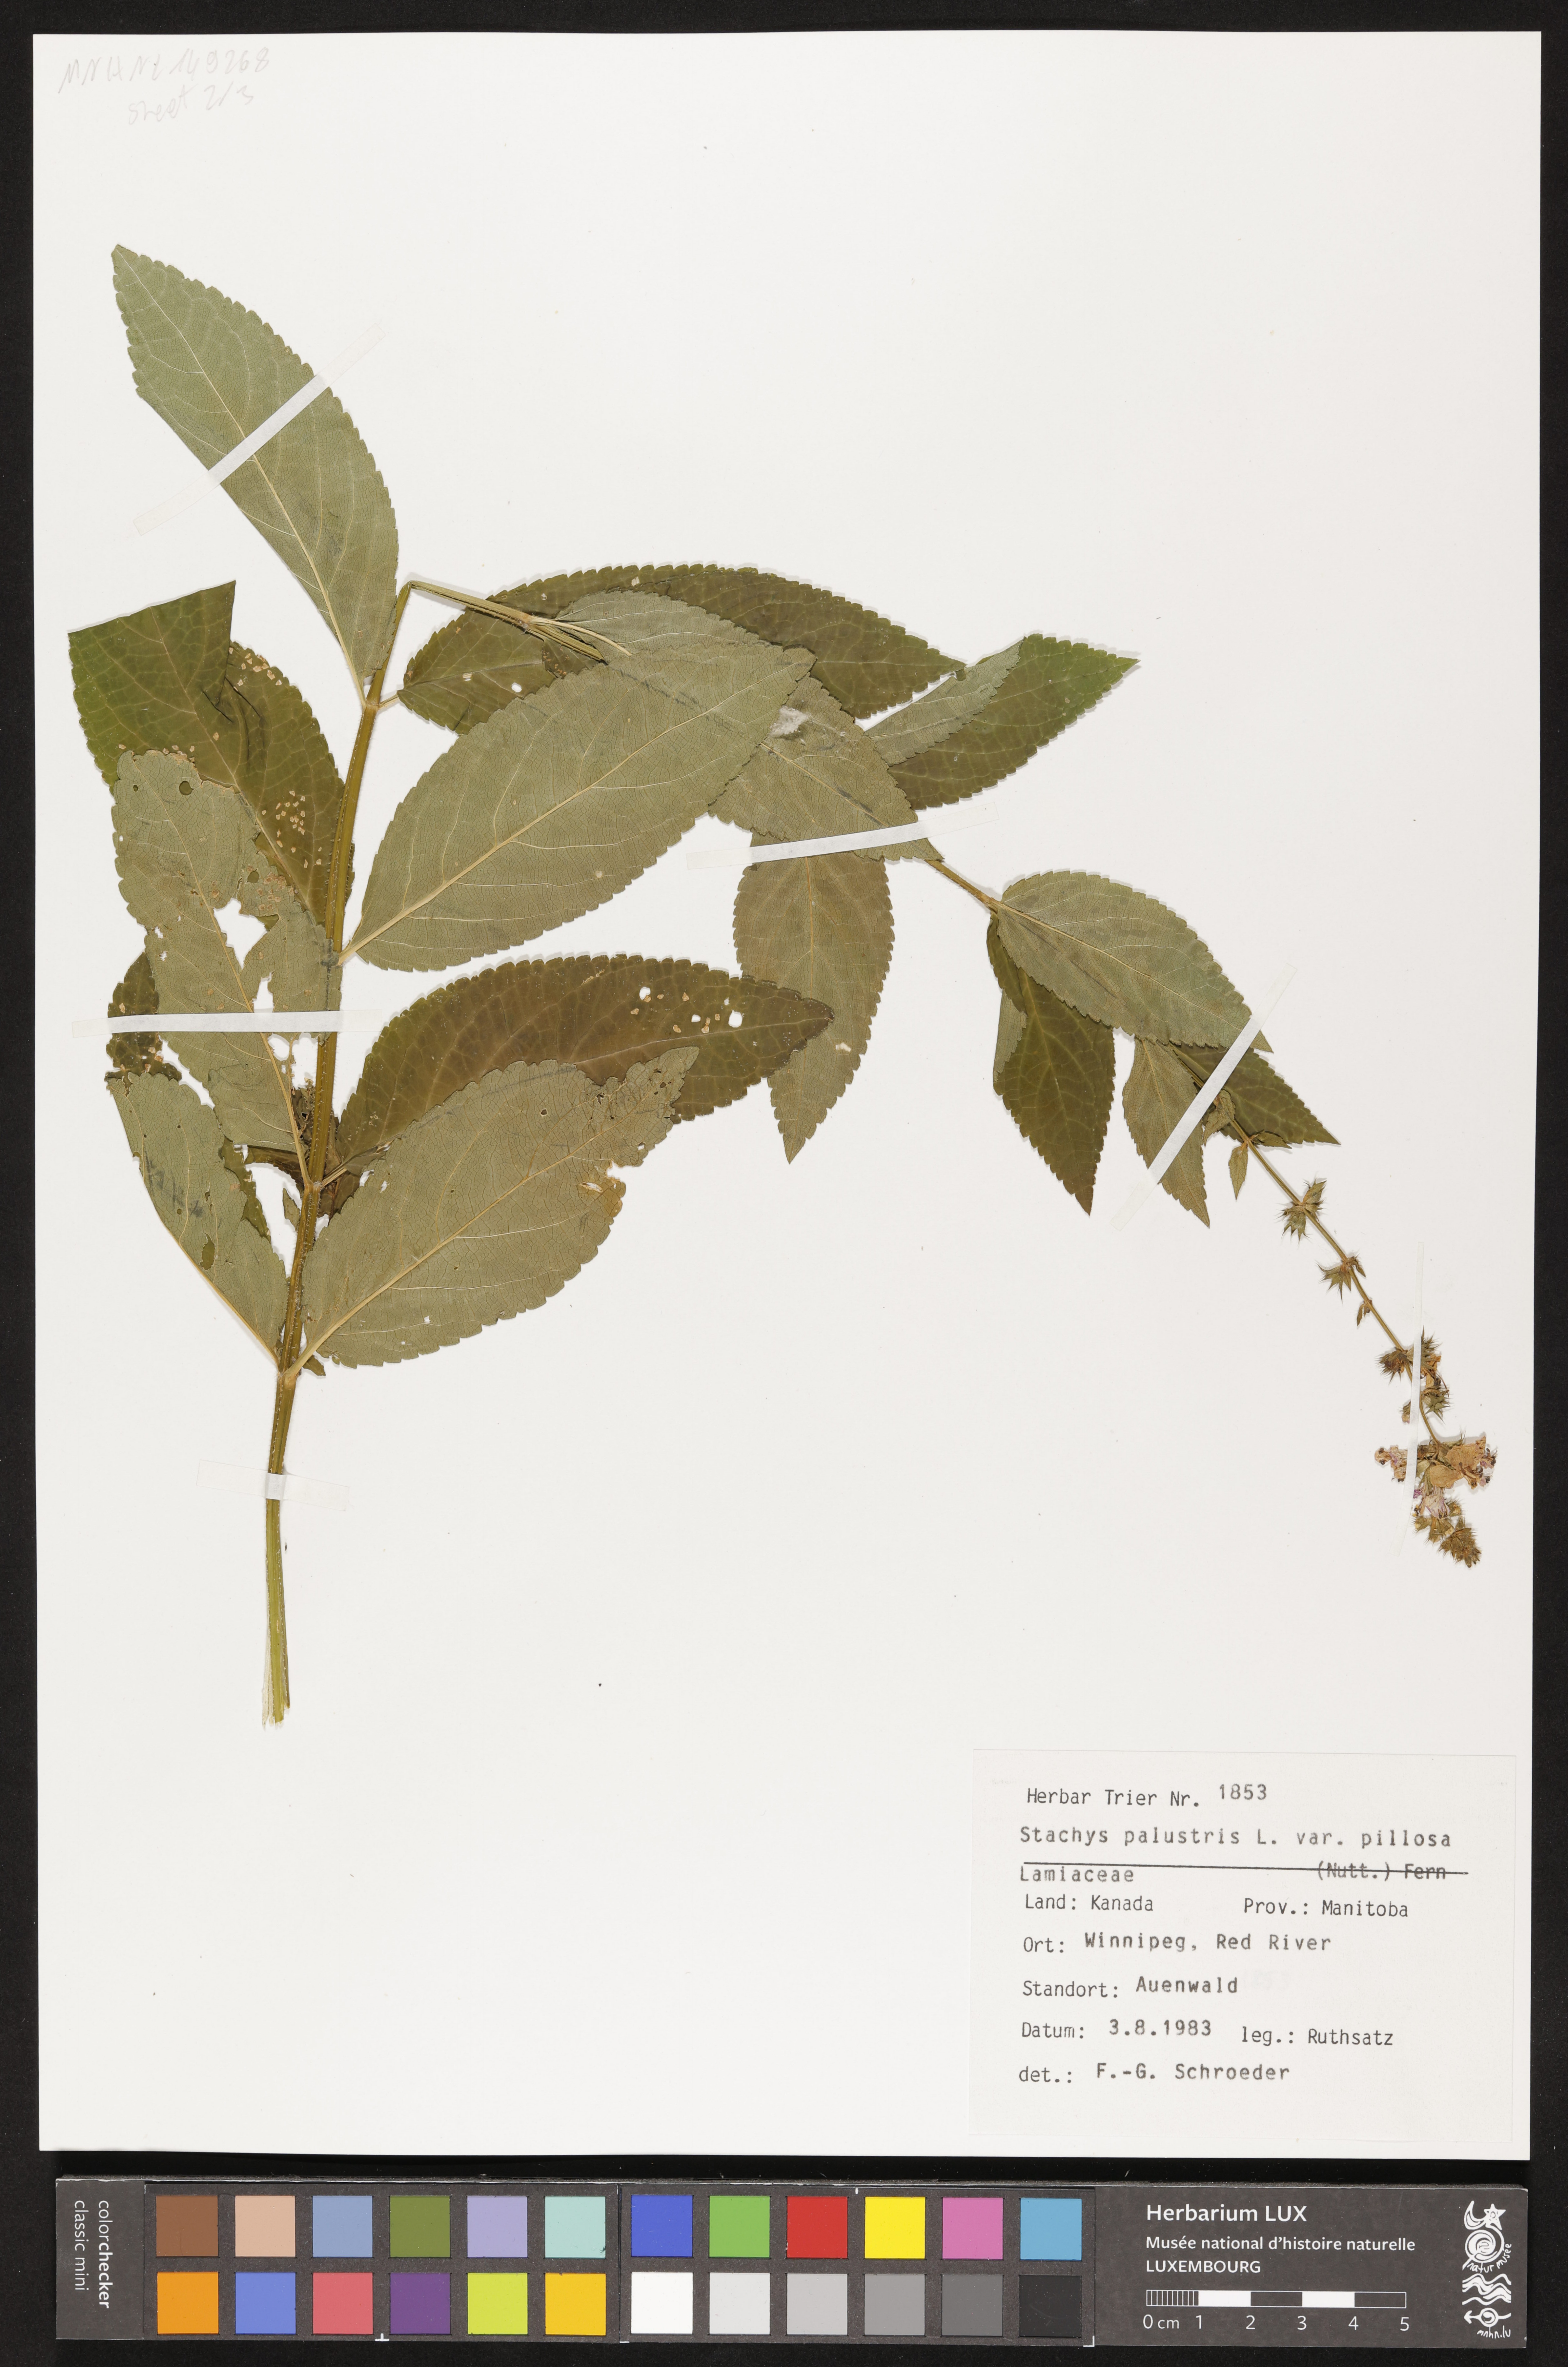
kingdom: Plantae
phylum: Tracheophyta
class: Magnoliopsida
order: Lamiales
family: Lamiaceae
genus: Stachys
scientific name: Stachys pilosa
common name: Hairy hedge-nettle
